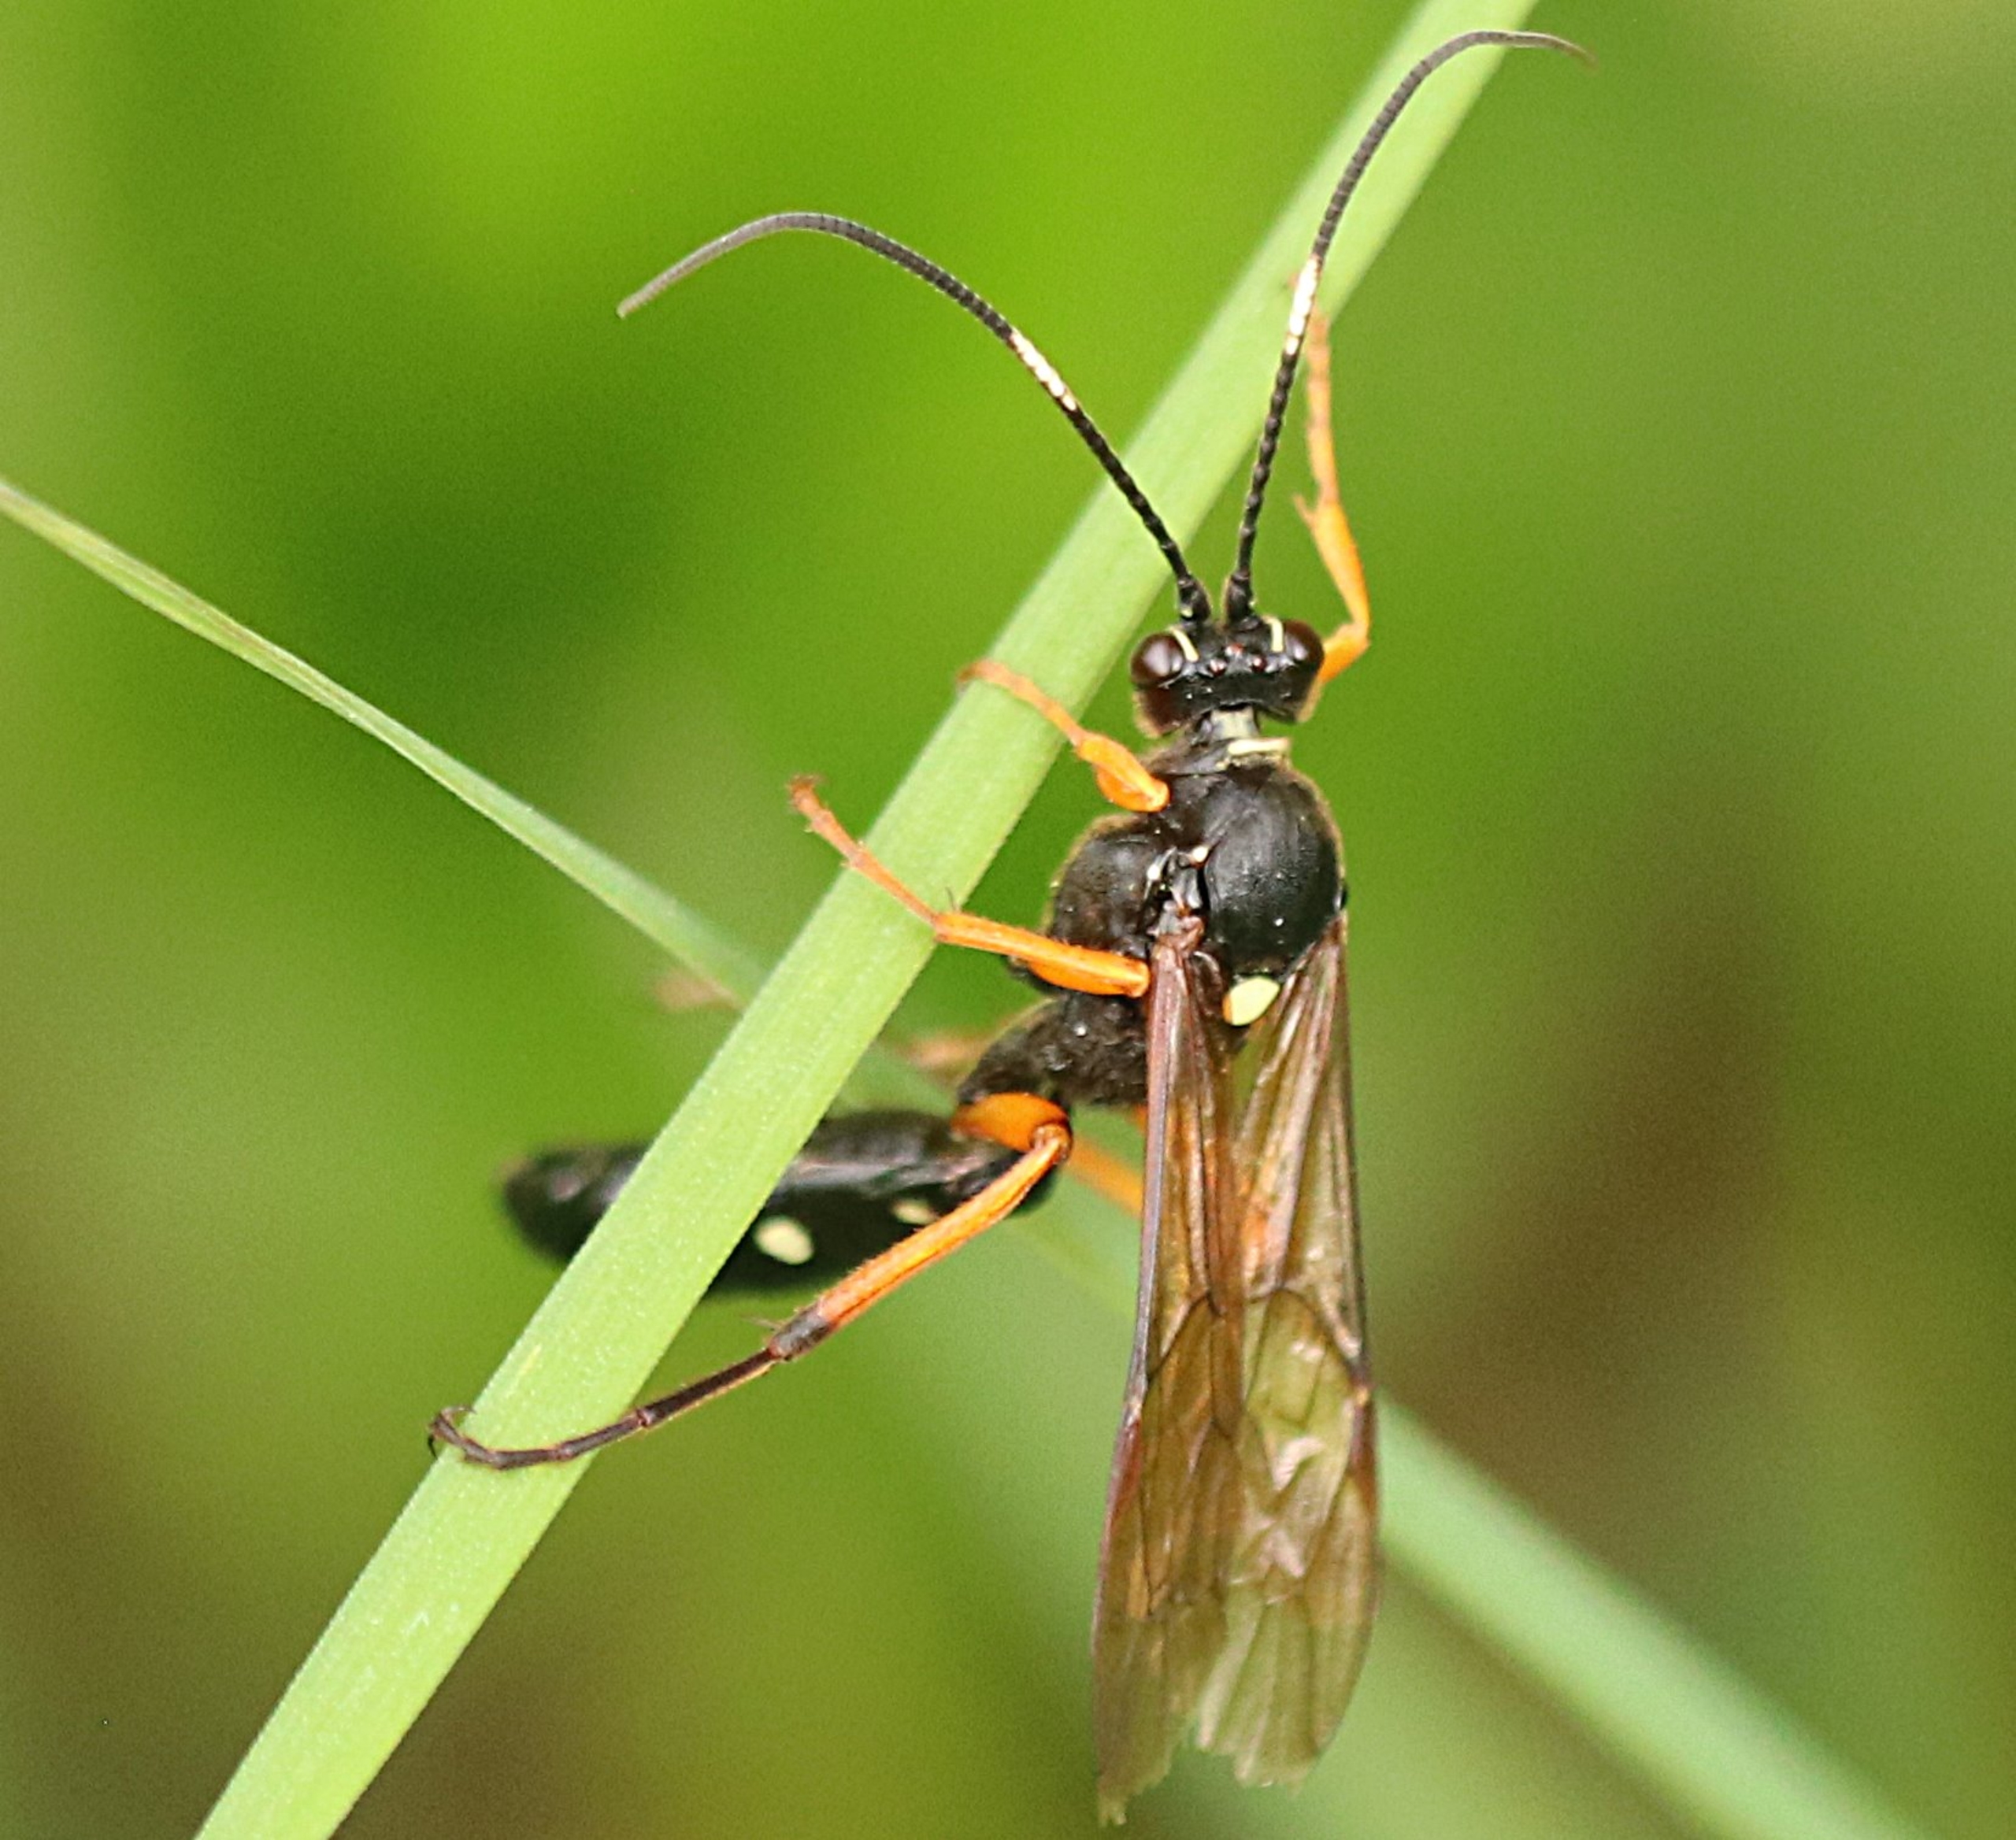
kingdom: Animalia
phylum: Arthropoda
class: Insecta
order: Hymenoptera
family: Ichneumonidae
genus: Diphyus
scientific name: Diphyus quadripunctorius
